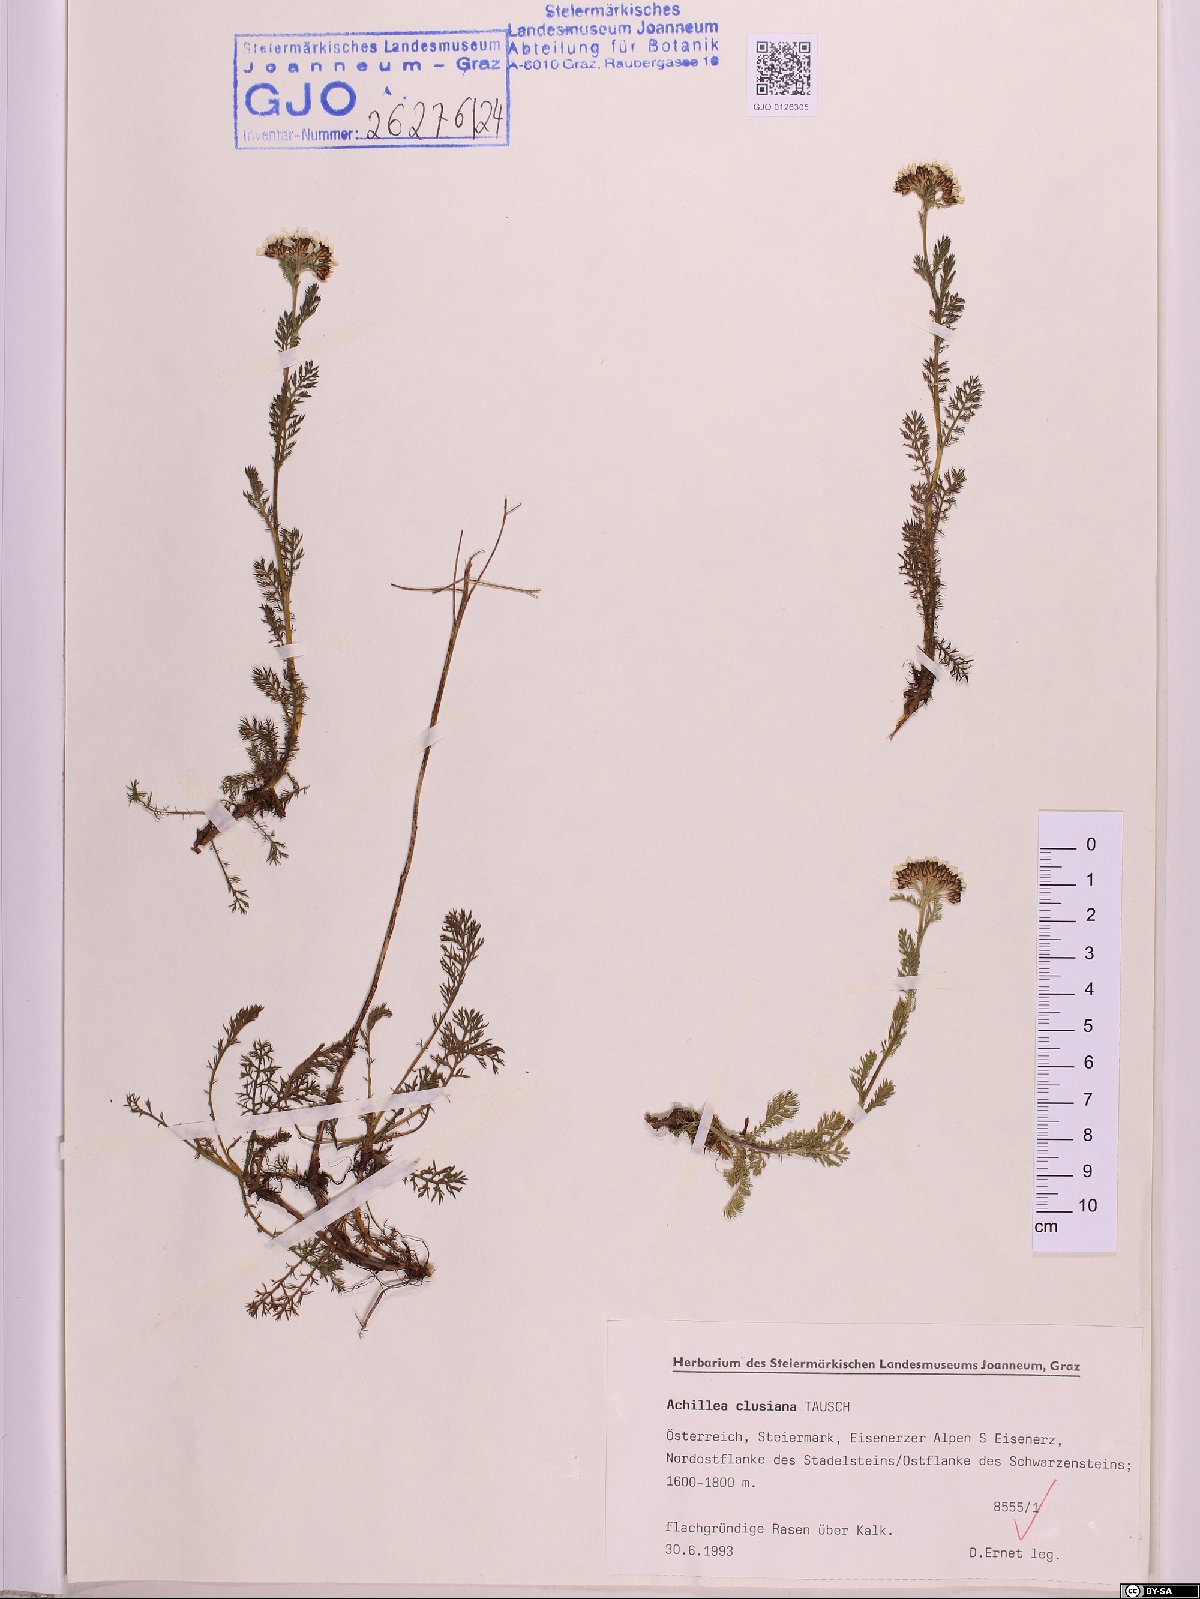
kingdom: Plantae
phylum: Tracheophyta
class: Magnoliopsida
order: Asterales
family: Asteraceae
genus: Achillea
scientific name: Achillea clusiana
